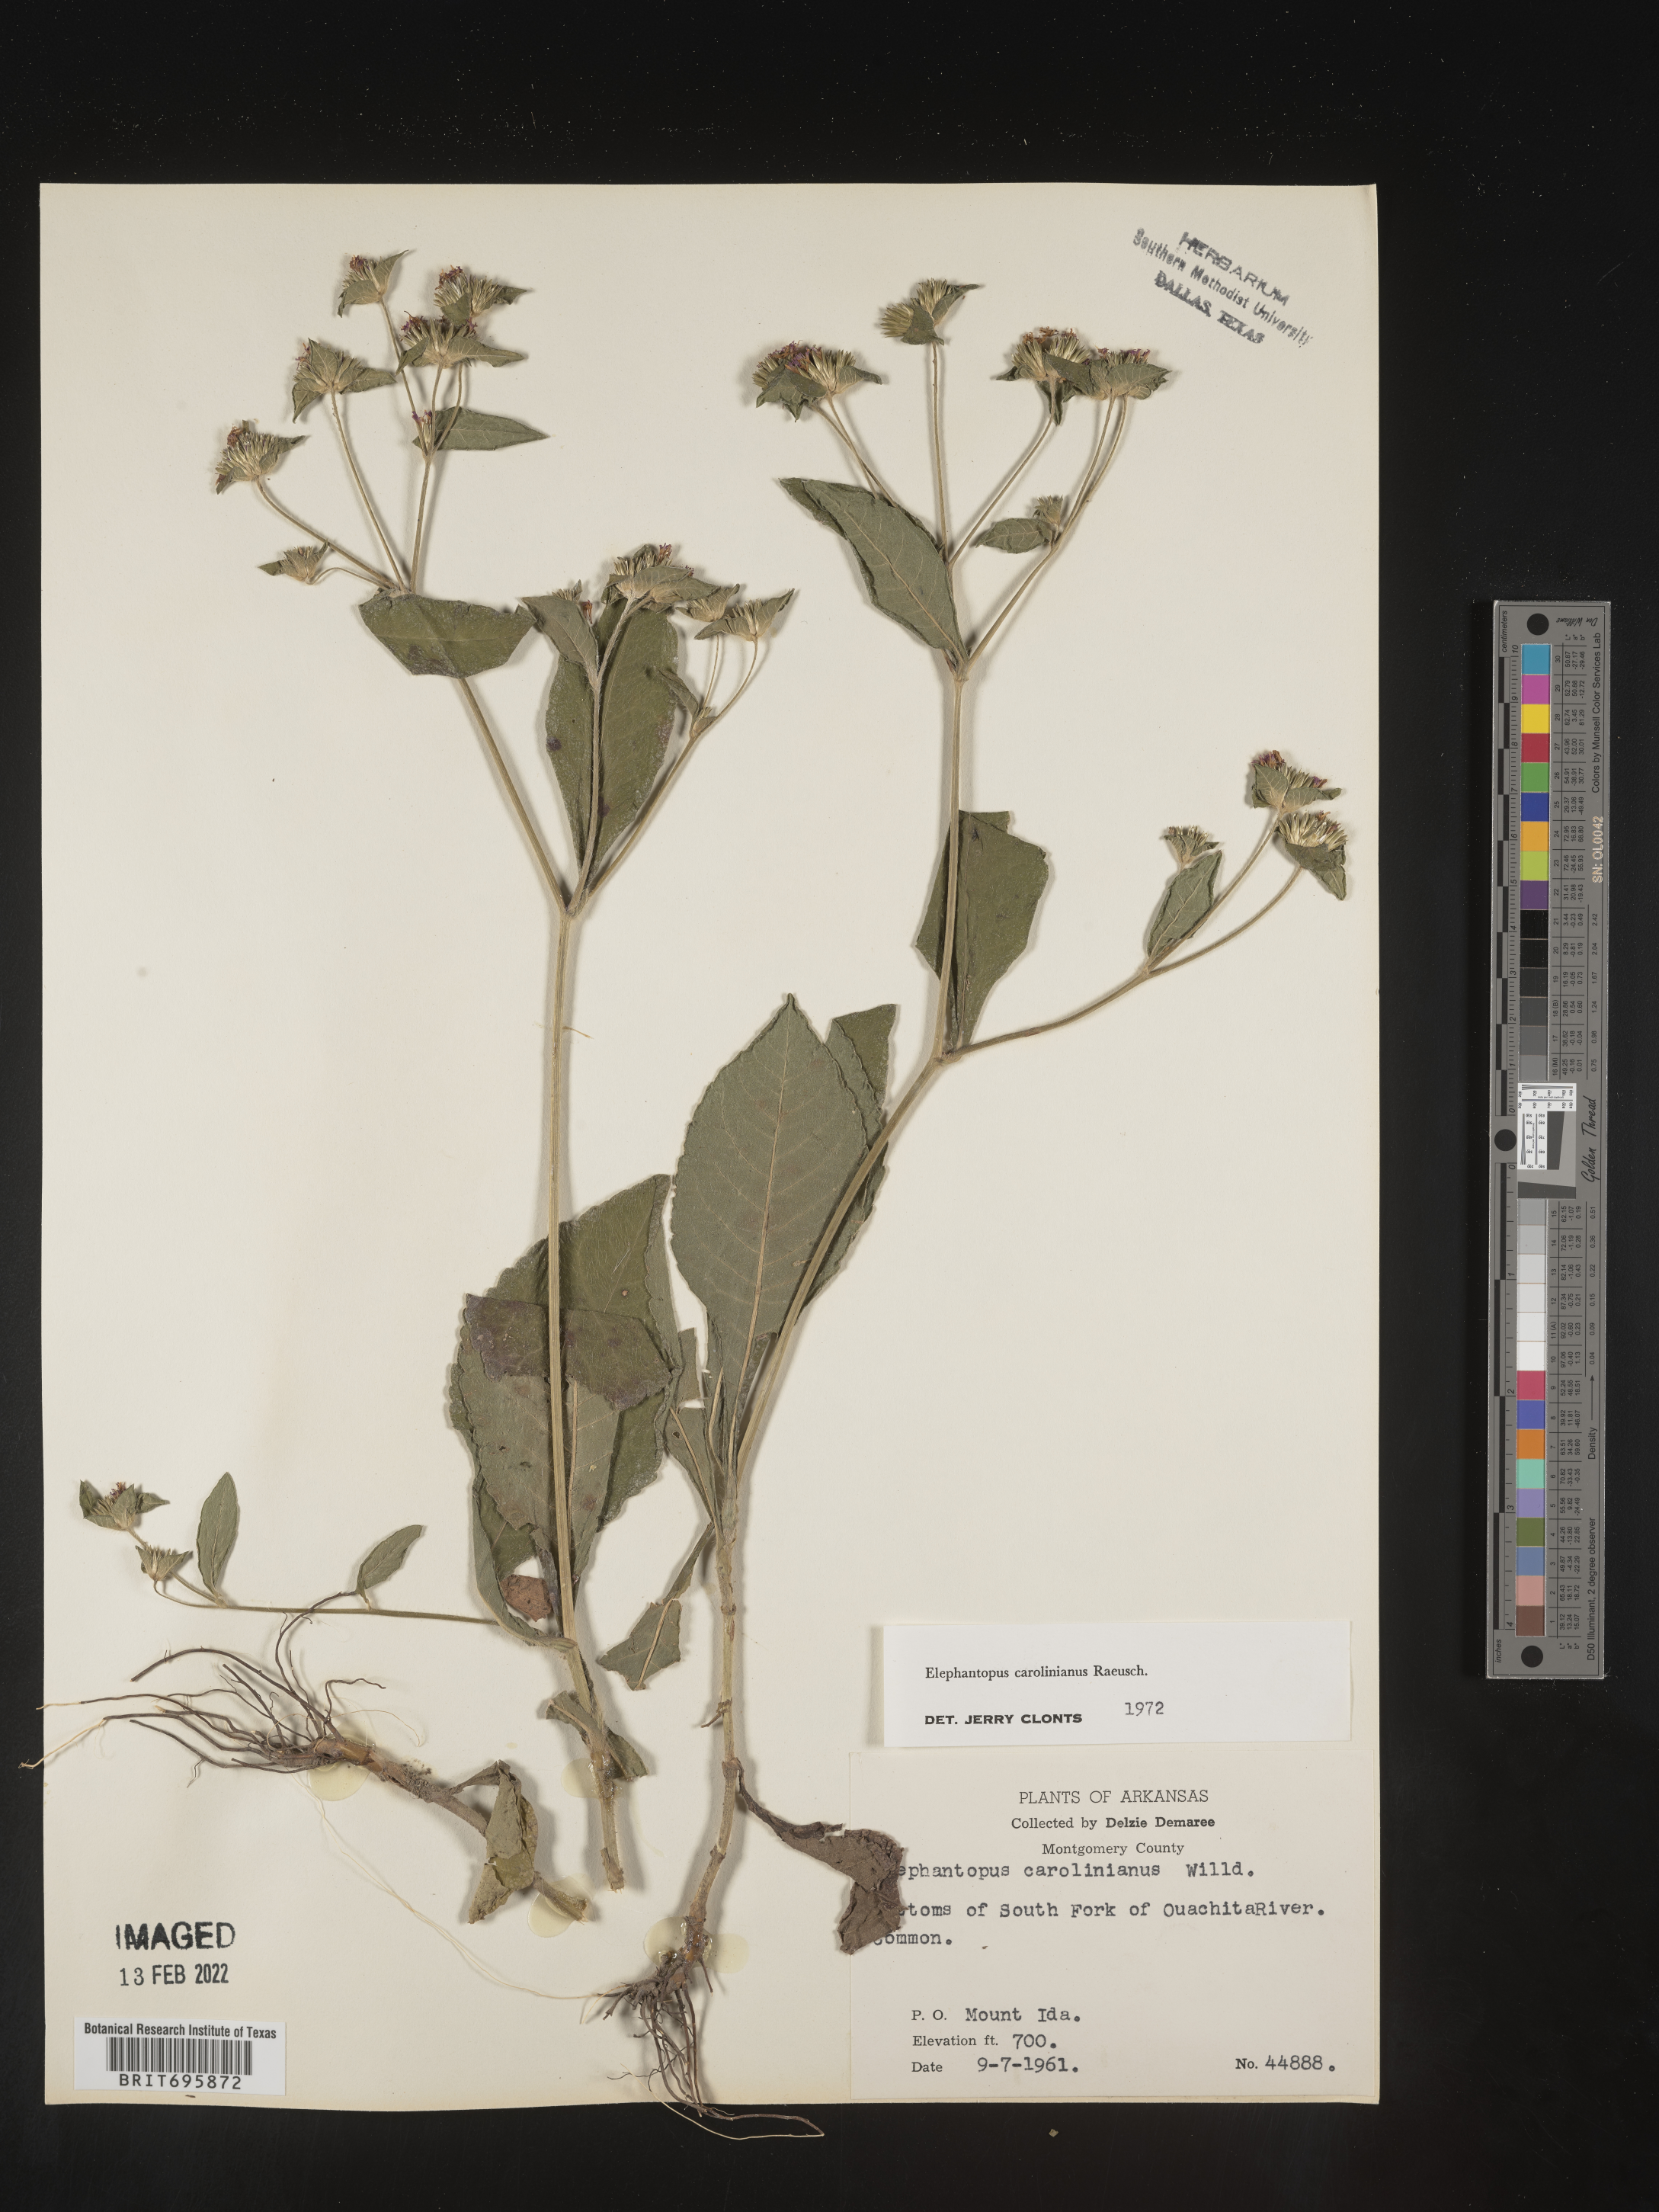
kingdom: Plantae
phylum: Tracheophyta
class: Magnoliopsida
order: Asterales
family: Asteraceae
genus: Elephantopus
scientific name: Elephantopus carolinianus
